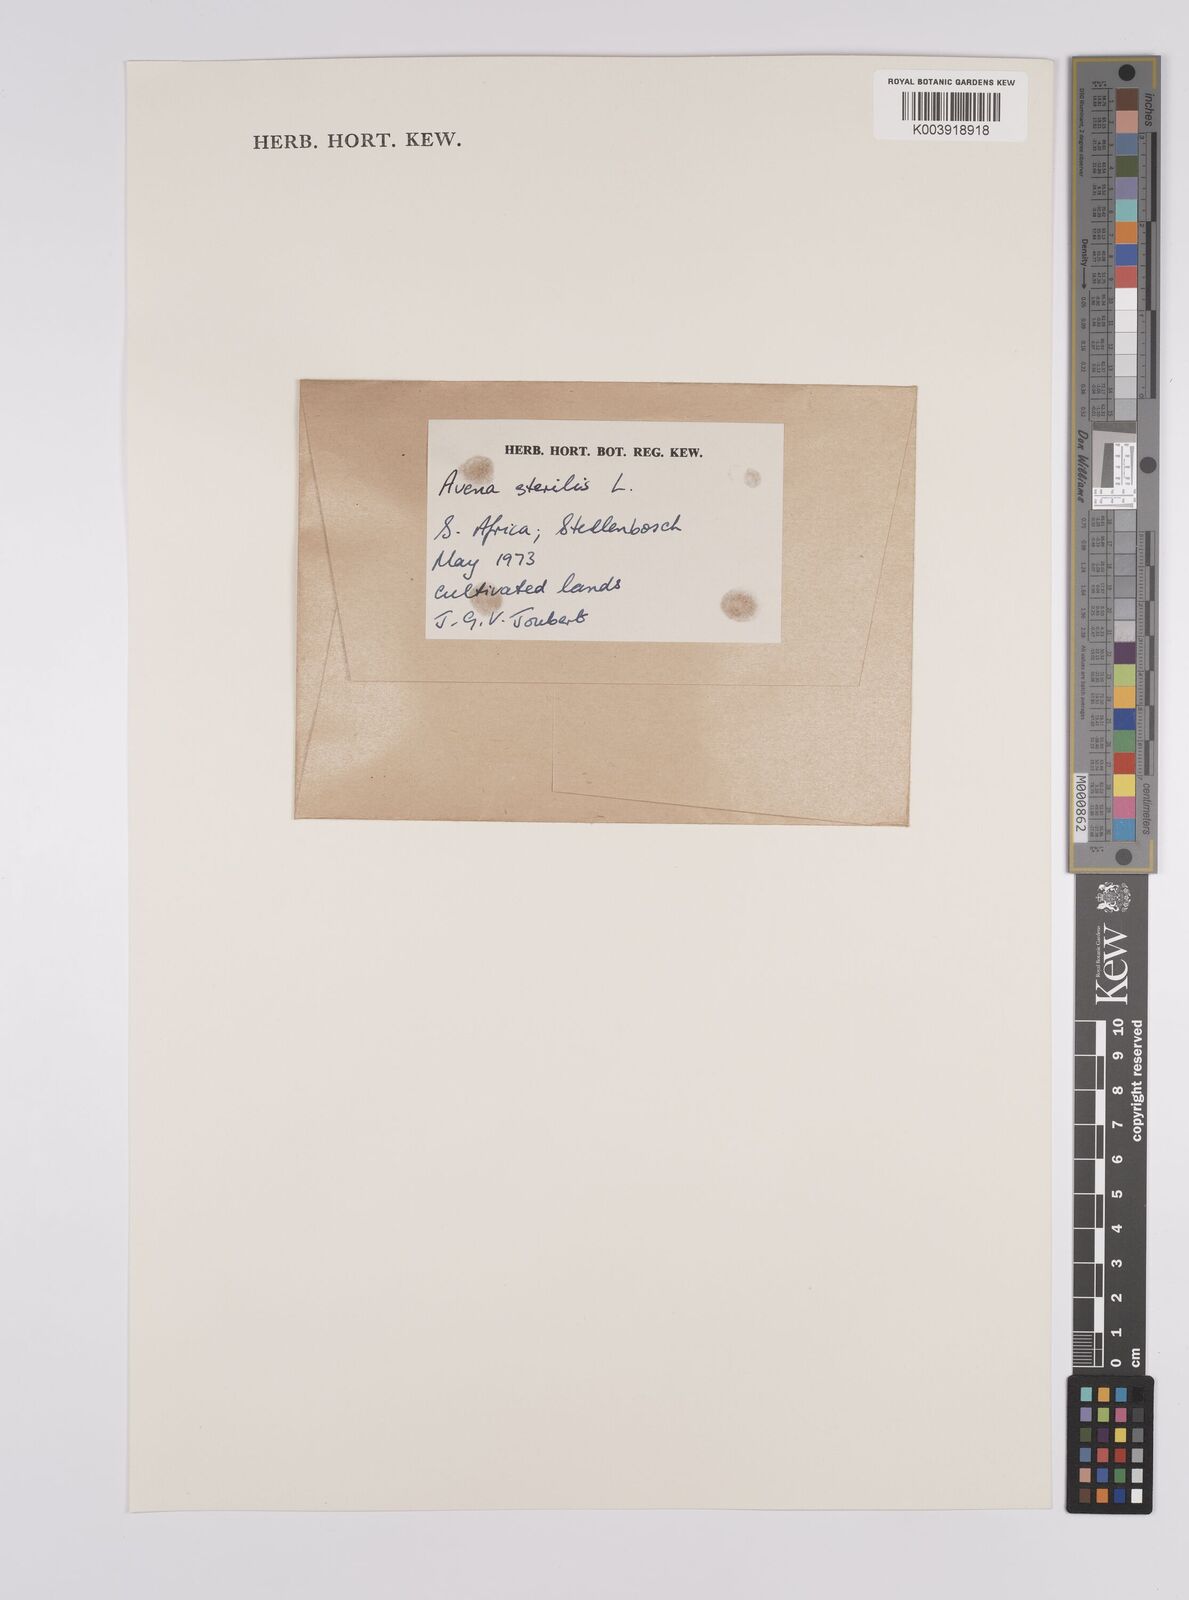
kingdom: Plantae
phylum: Tracheophyta
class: Liliopsida
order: Poales
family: Poaceae
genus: Avena
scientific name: Avena sterilis
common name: Animated oat
